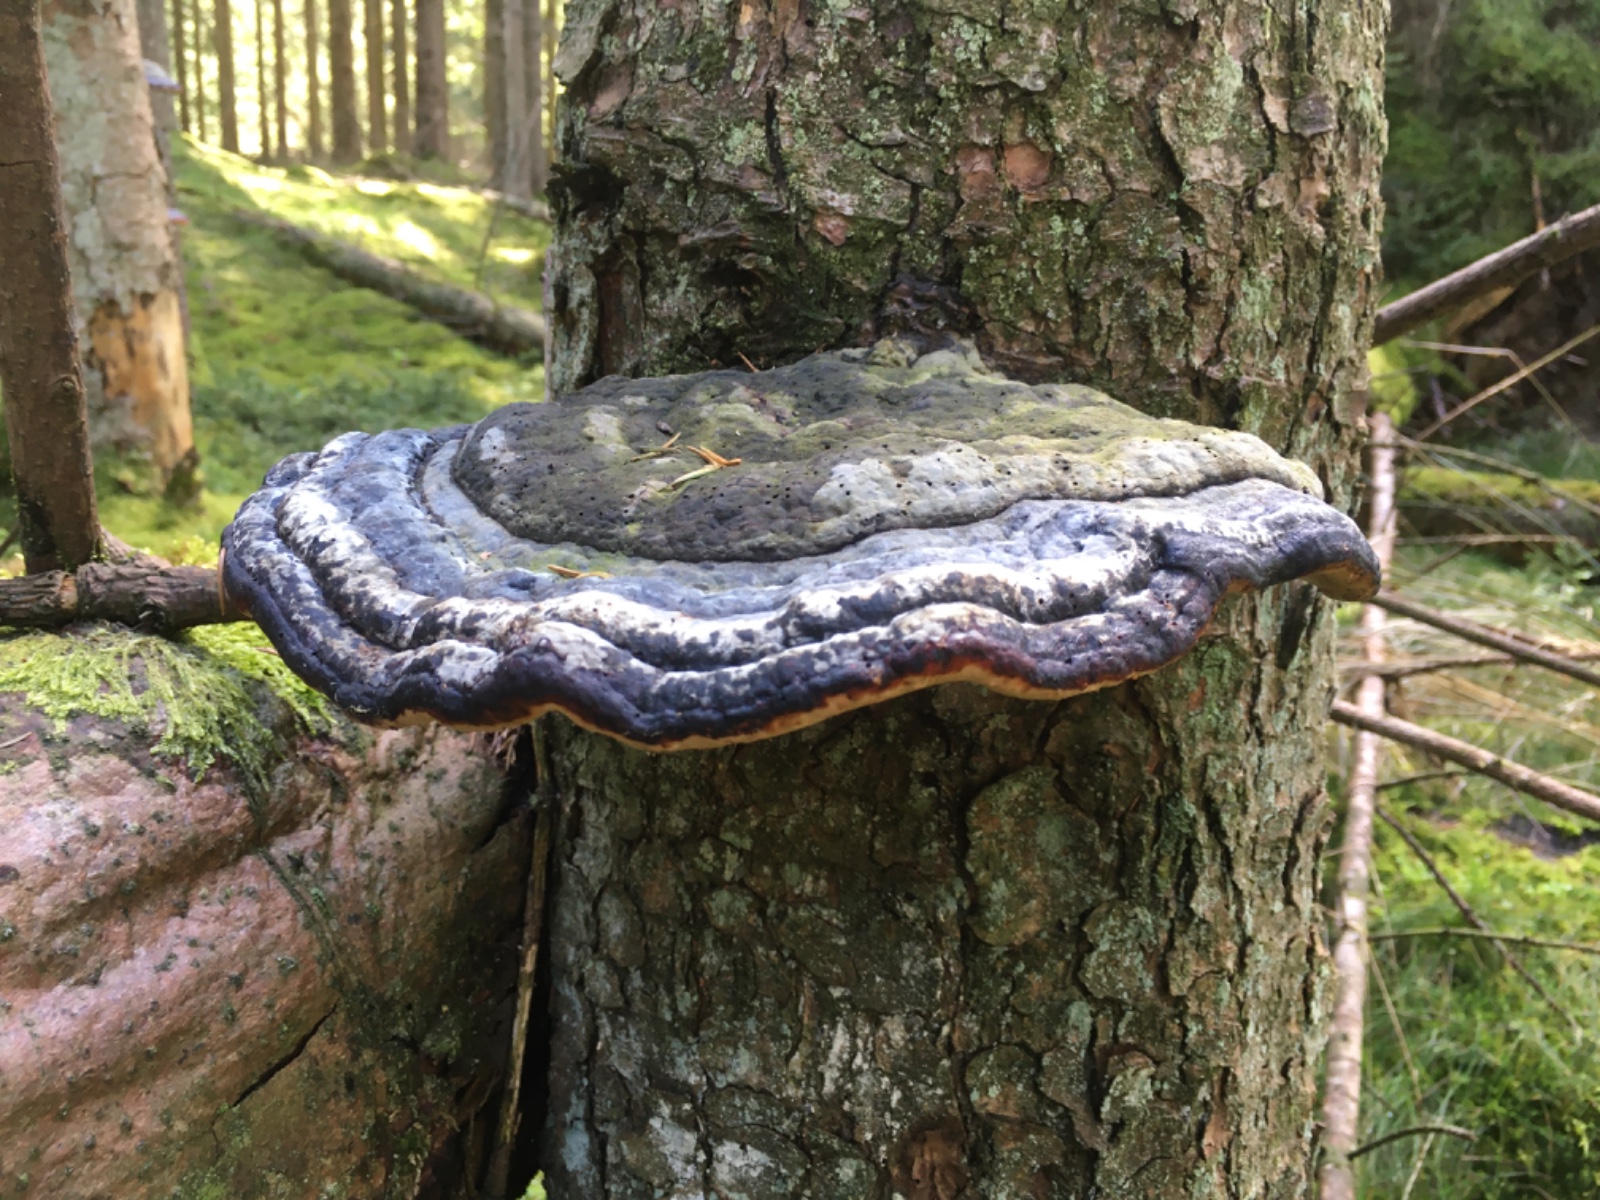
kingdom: Fungi
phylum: Basidiomycota
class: Agaricomycetes
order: Polyporales
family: Fomitopsidaceae
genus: Fomitopsis
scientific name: Fomitopsis pinicola
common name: randbæltet hovporesvamp
